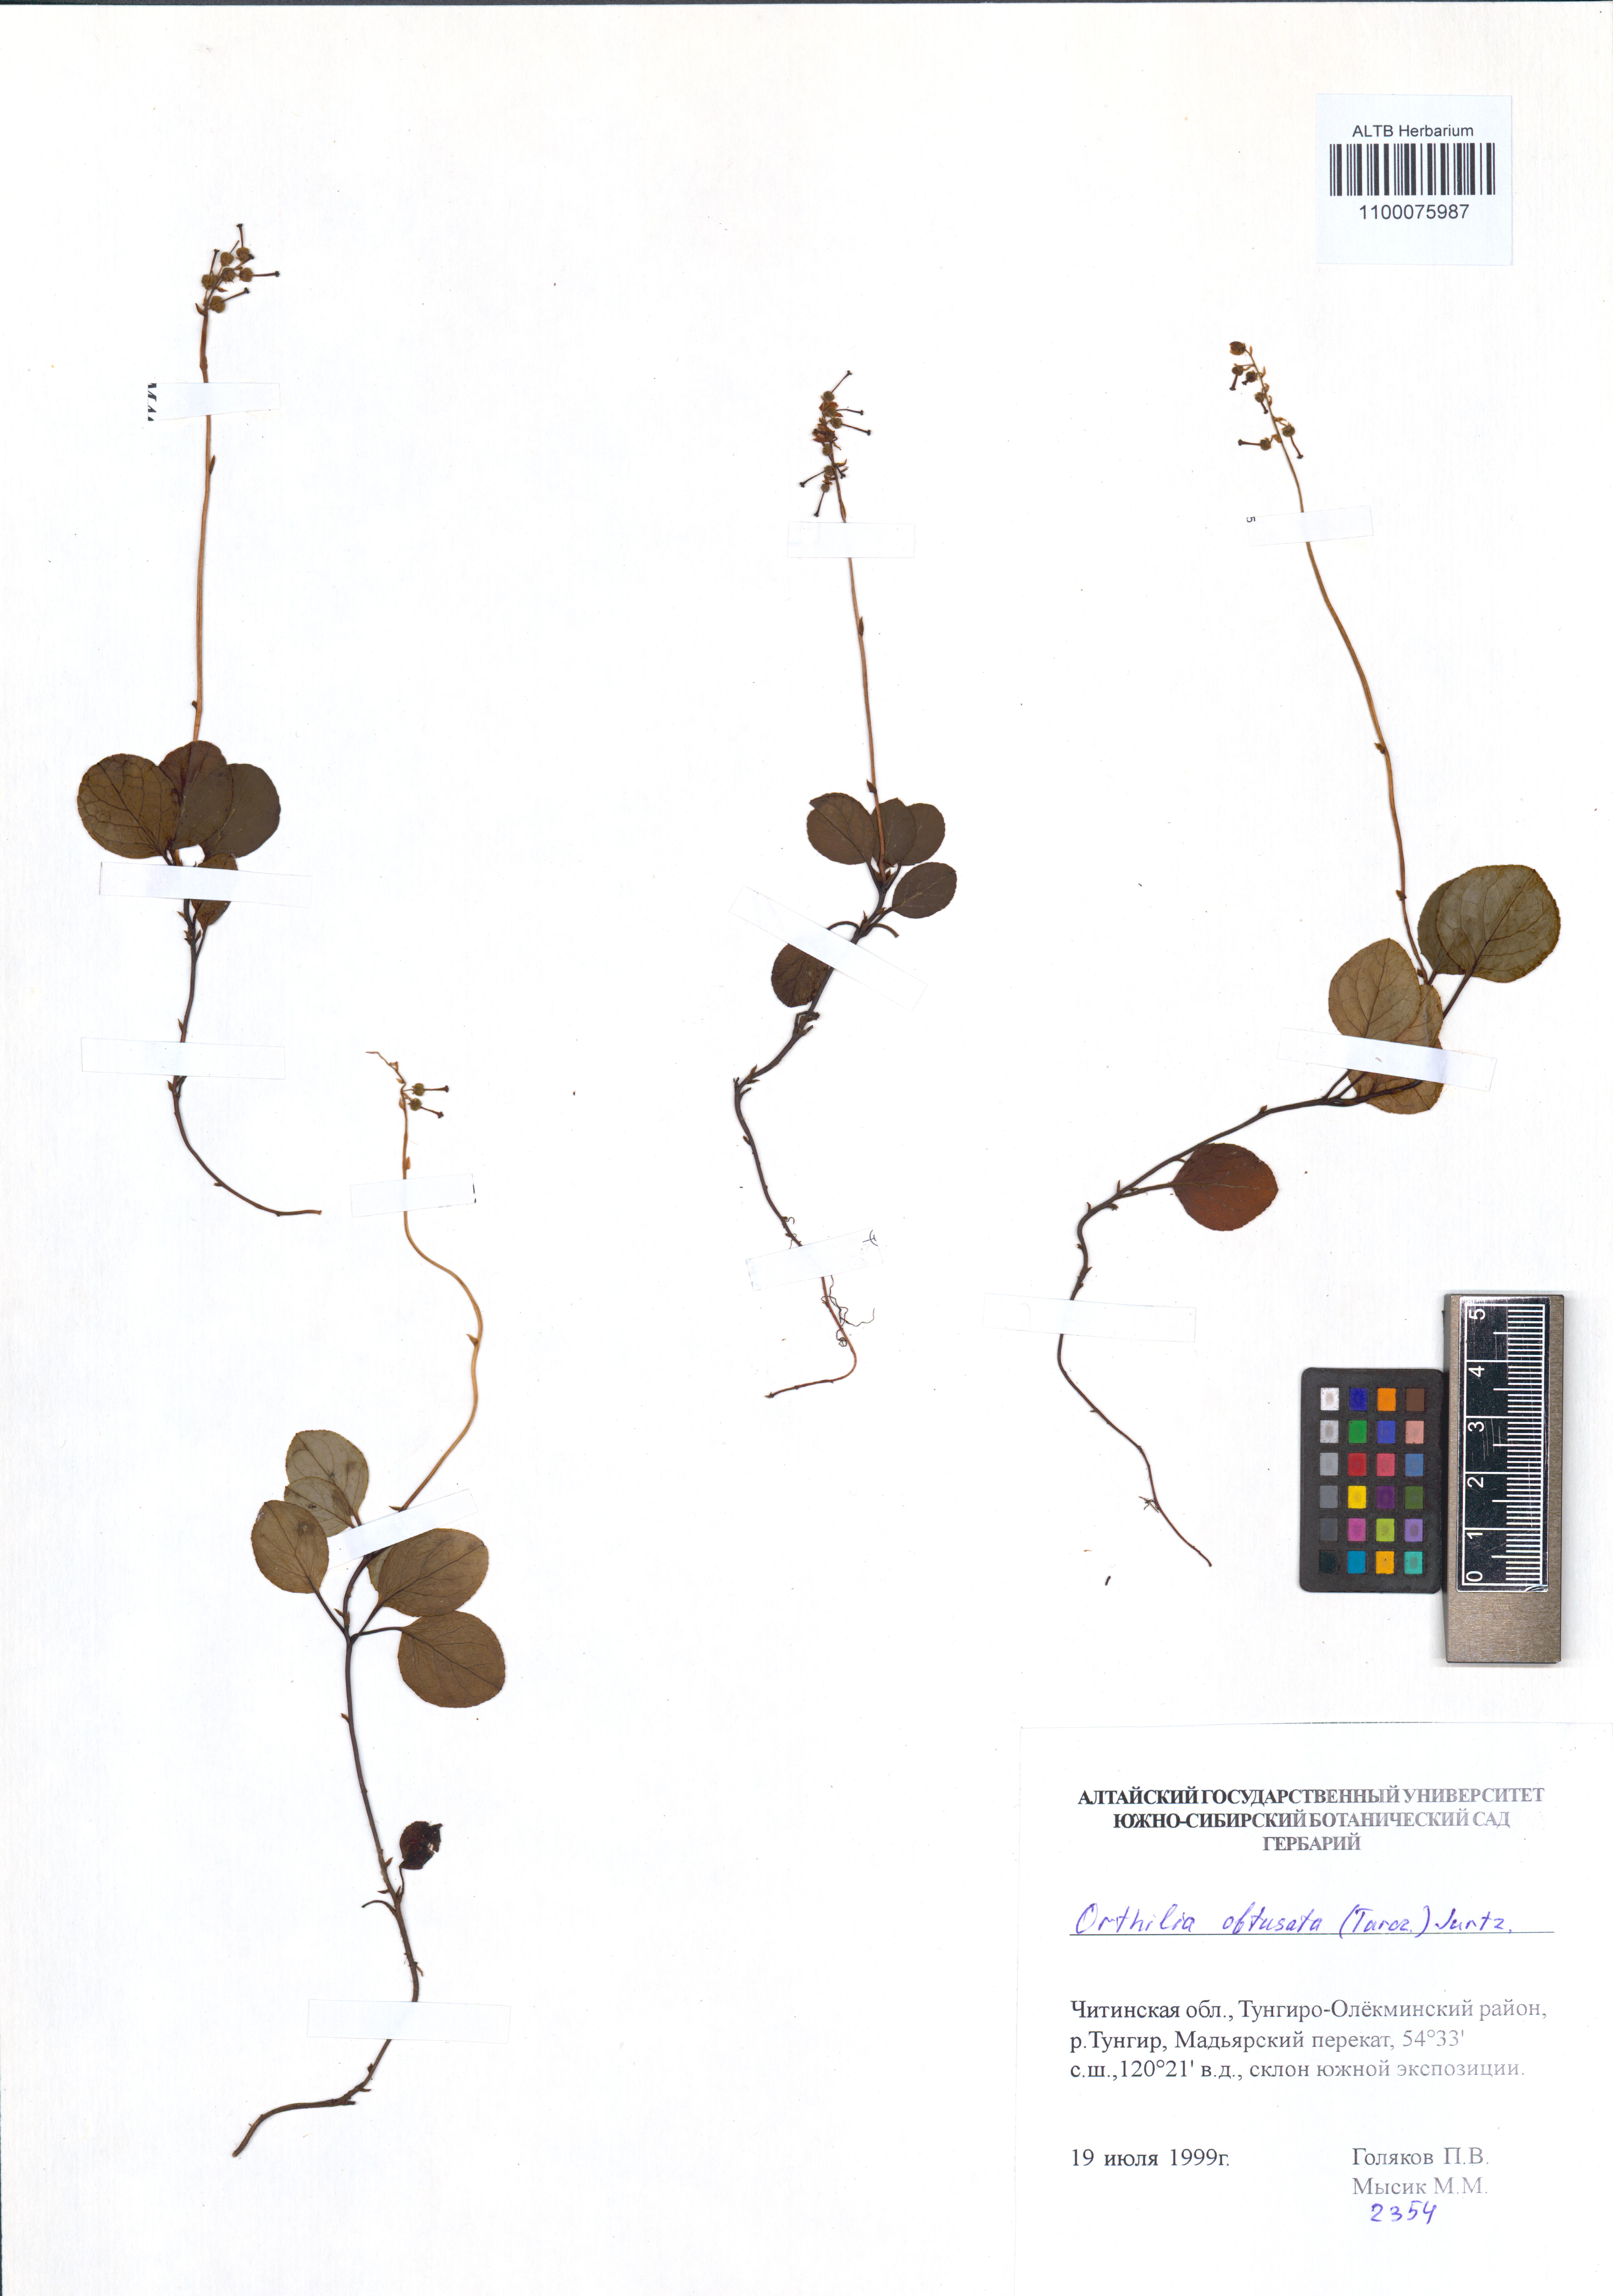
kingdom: Plantae
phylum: Tracheophyta
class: Magnoliopsida
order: Ericales
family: Ericaceae
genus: Orthilia
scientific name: Orthilia secunda
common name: One-sided orthilia
